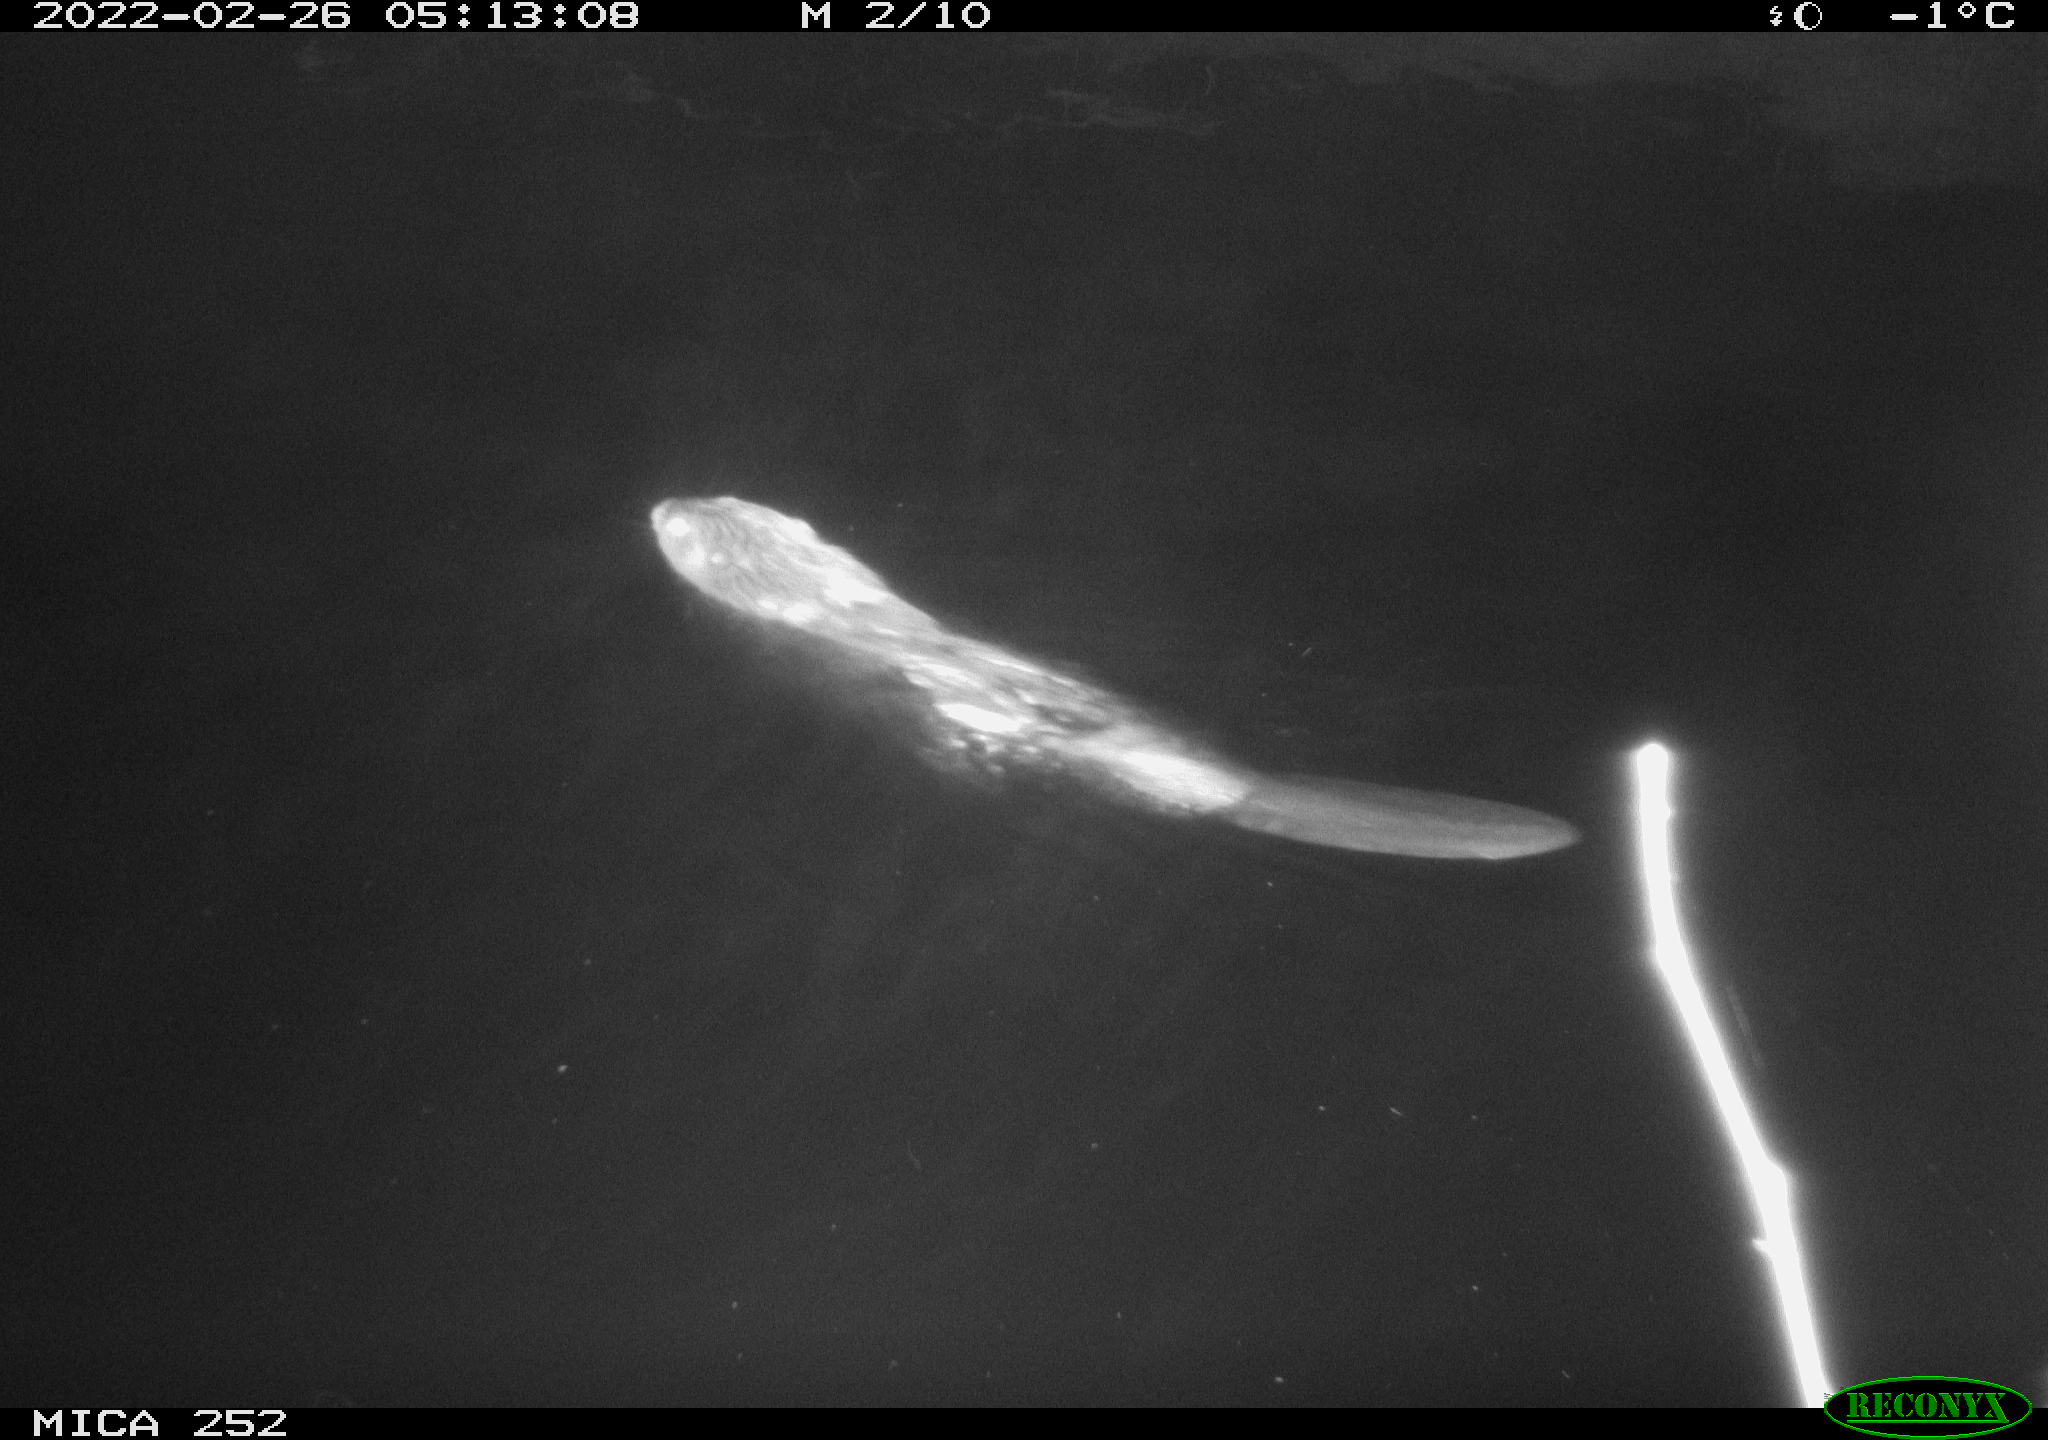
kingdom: Animalia
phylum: Chordata
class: Mammalia
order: Rodentia
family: Castoridae
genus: Castor
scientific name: Castor fiber
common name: Eurasian beaver
